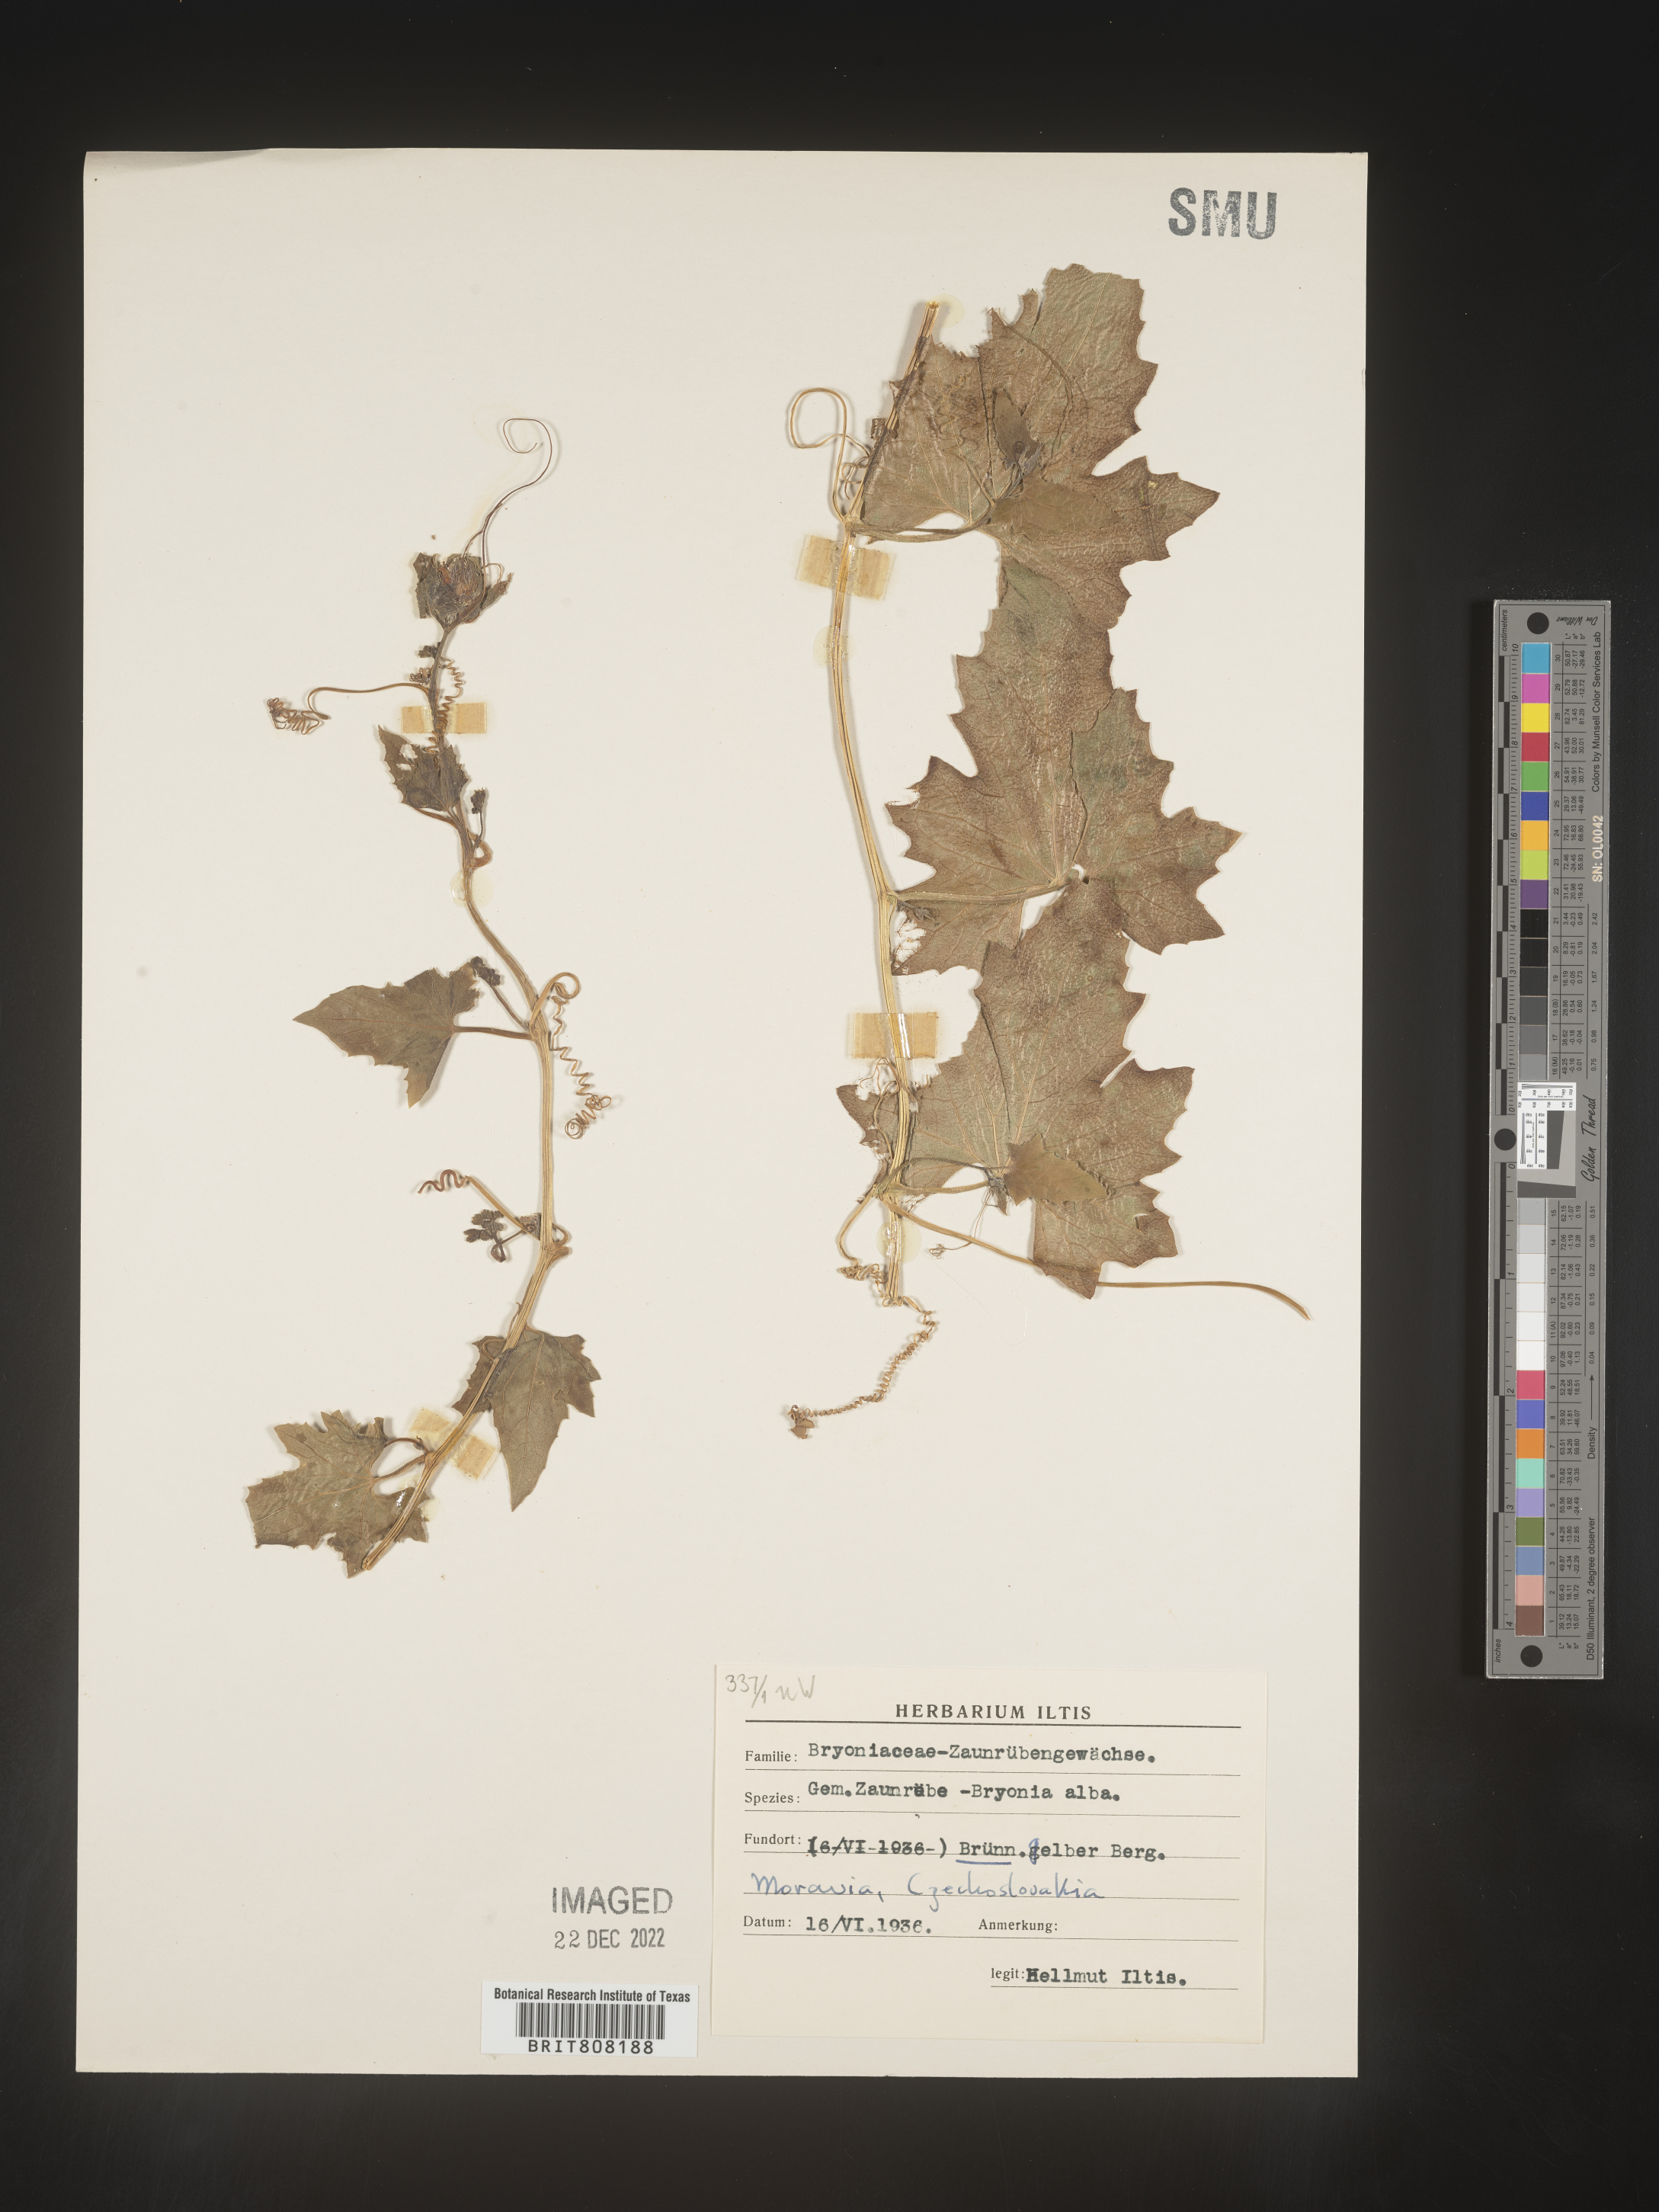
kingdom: Plantae
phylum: Tracheophyta
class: Magnoliopsida
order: Cucurbitales
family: Cucurbitaceae
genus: Bryonia
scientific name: Bryonia
